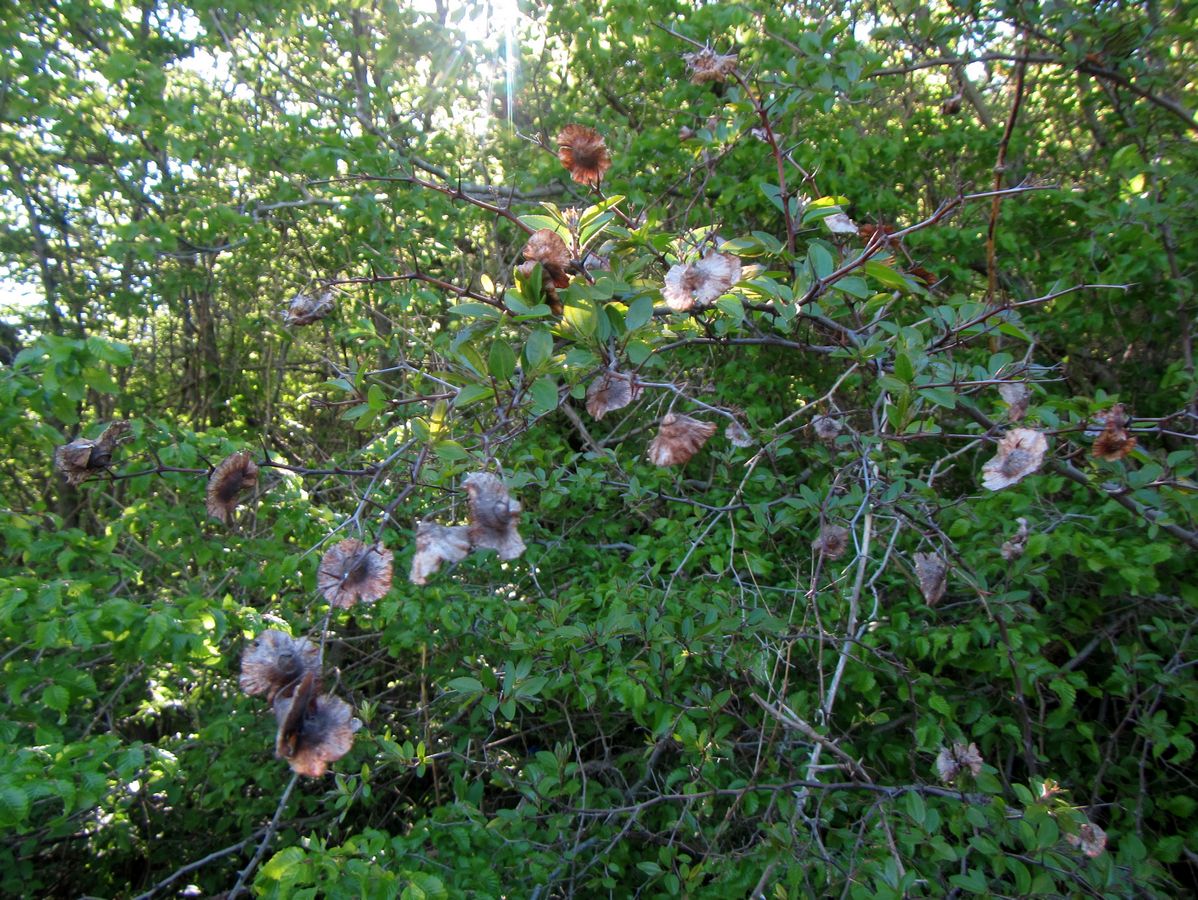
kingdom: Plantae
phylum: Tracheophyta
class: Magnoliopsida
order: Rosales
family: Rhamnaceae
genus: Paliurus
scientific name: Paliurus spina-christi
